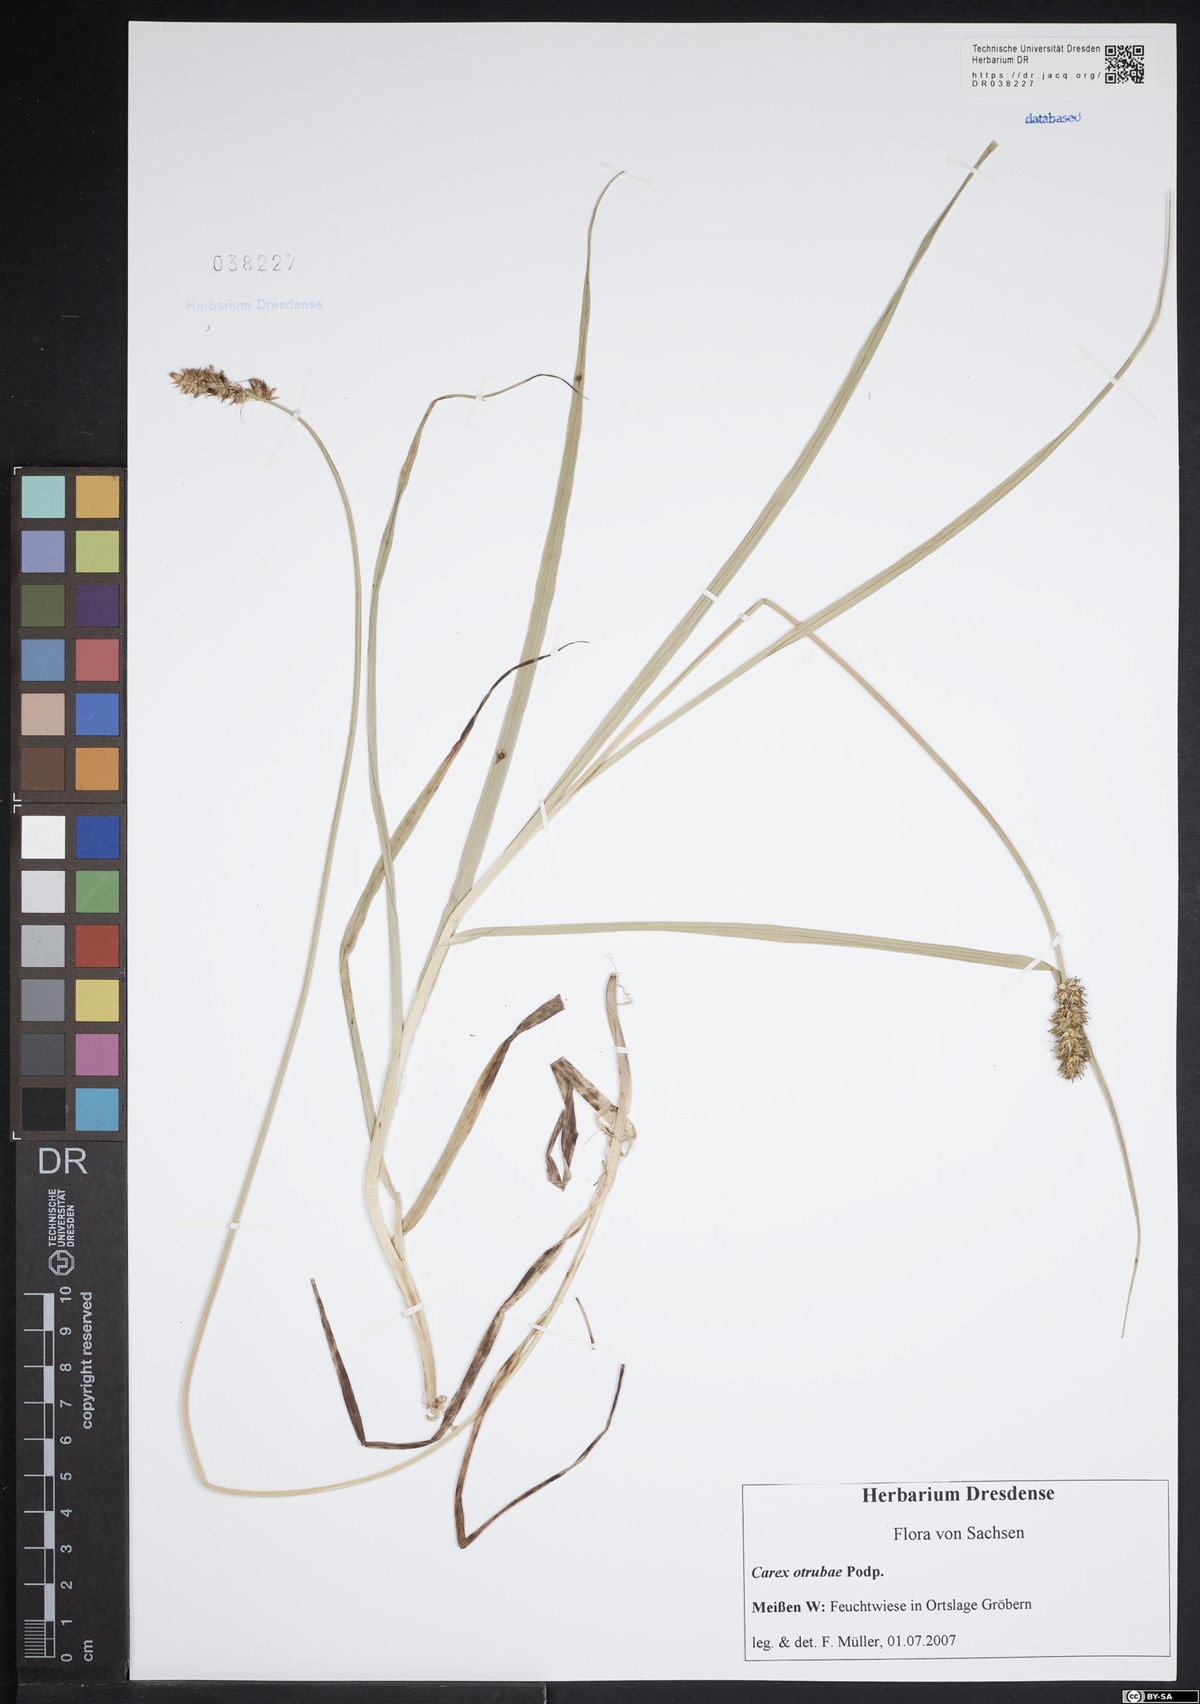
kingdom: Plantae
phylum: Tracheophyta
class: Liliopsida
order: Poales
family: Cyperaceae
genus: Carex
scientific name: Carex otrubae
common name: False fox-sedge
